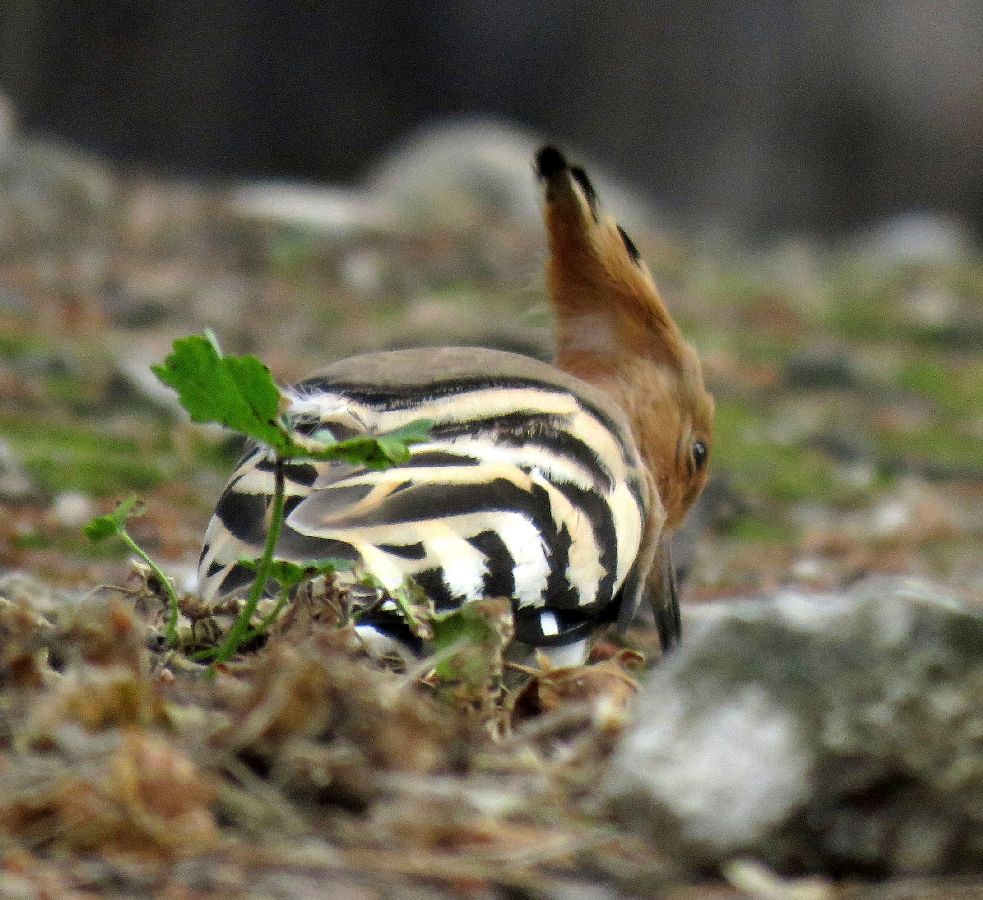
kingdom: Animalia
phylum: Chordata
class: Aves
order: Bucerotiformes
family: Upupidae
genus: Upupa
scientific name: Upupa epops
